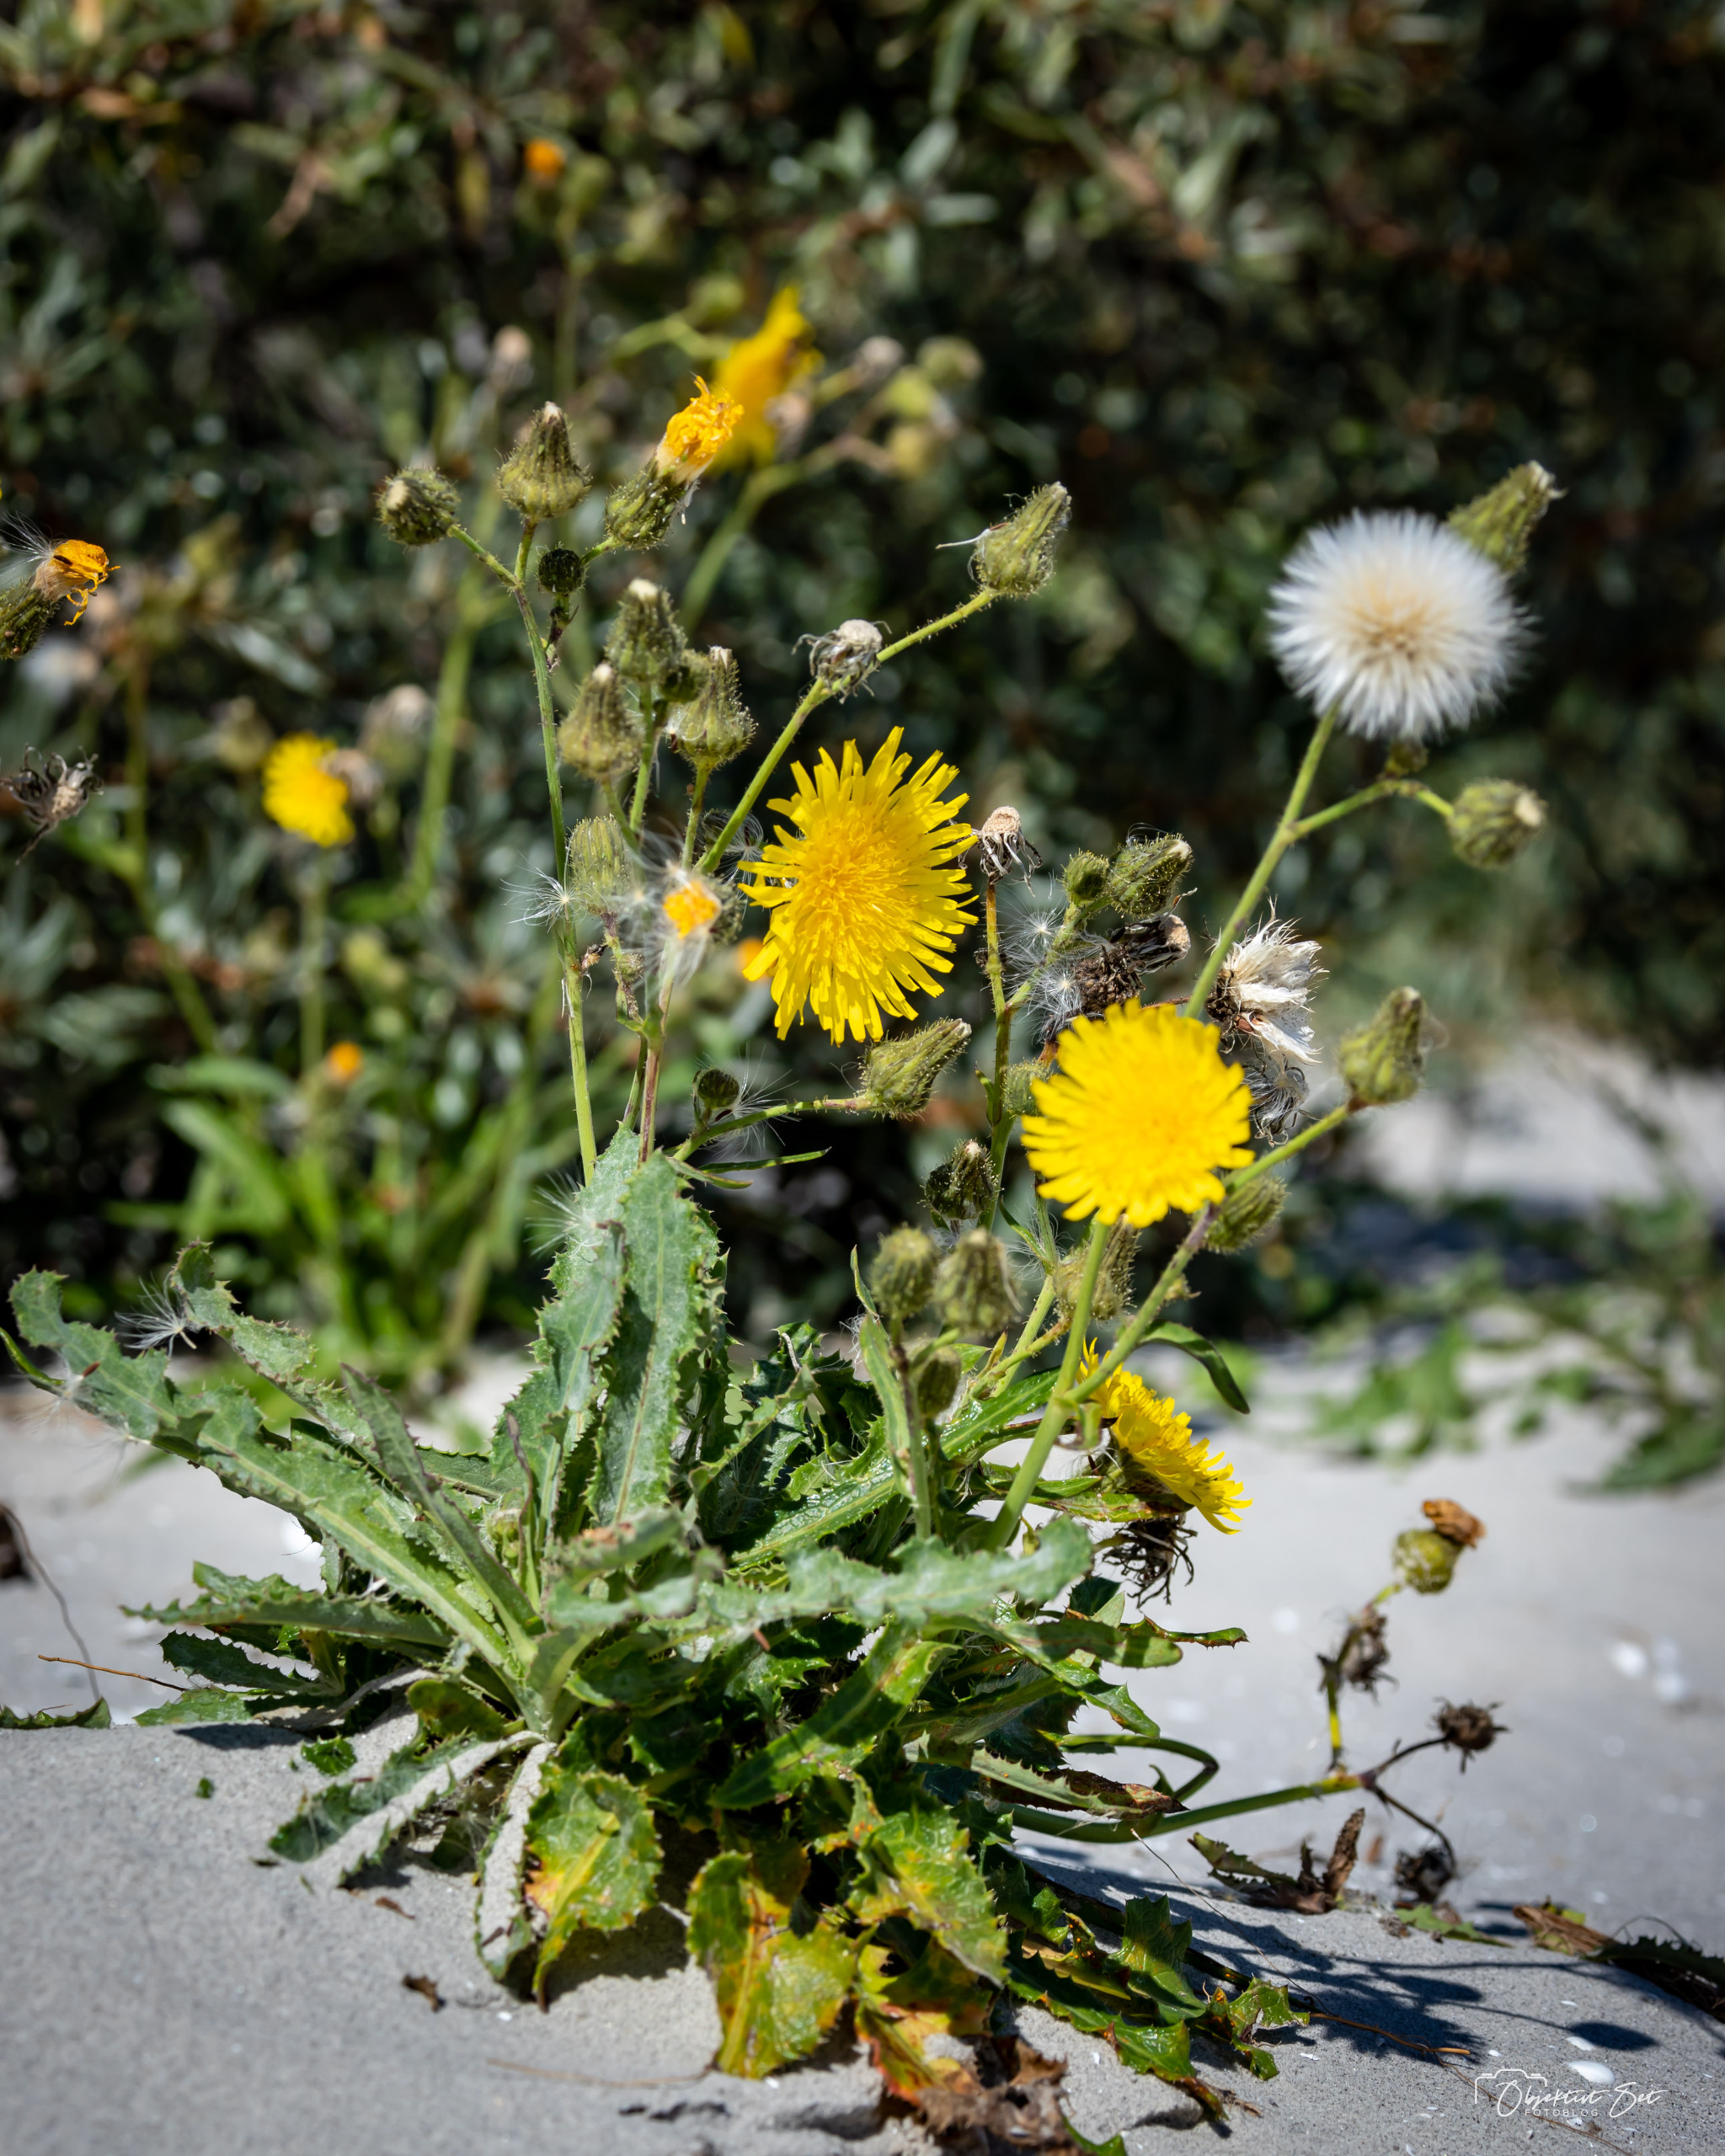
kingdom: Plantae
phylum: Tracheophyta
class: Magnoliopsida
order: Asterales
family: Asteraceae
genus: Sonchus
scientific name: Sonchus arvensis
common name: Ager-svinemælk
